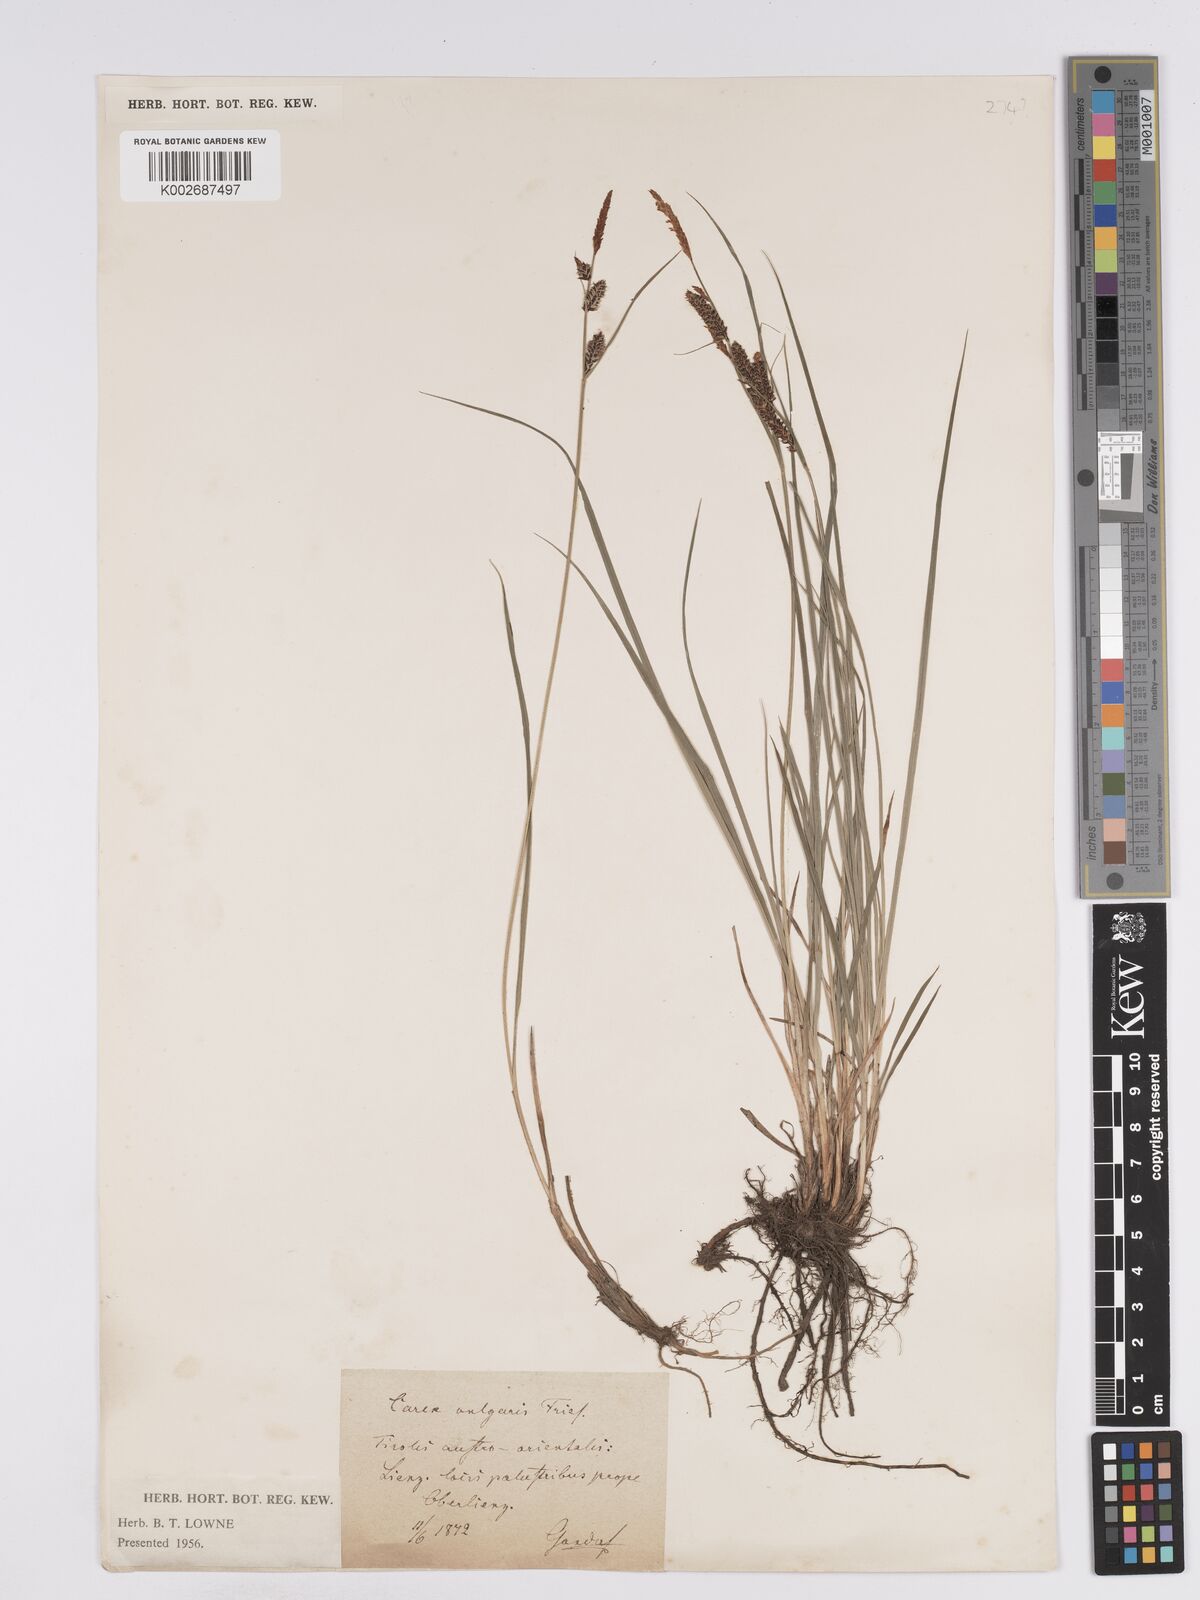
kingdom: Plantae
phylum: Tracheophyta
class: Liliopsida
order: Poales
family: Cyperaceae
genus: Carex
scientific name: Carex nigra
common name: Common sedge
